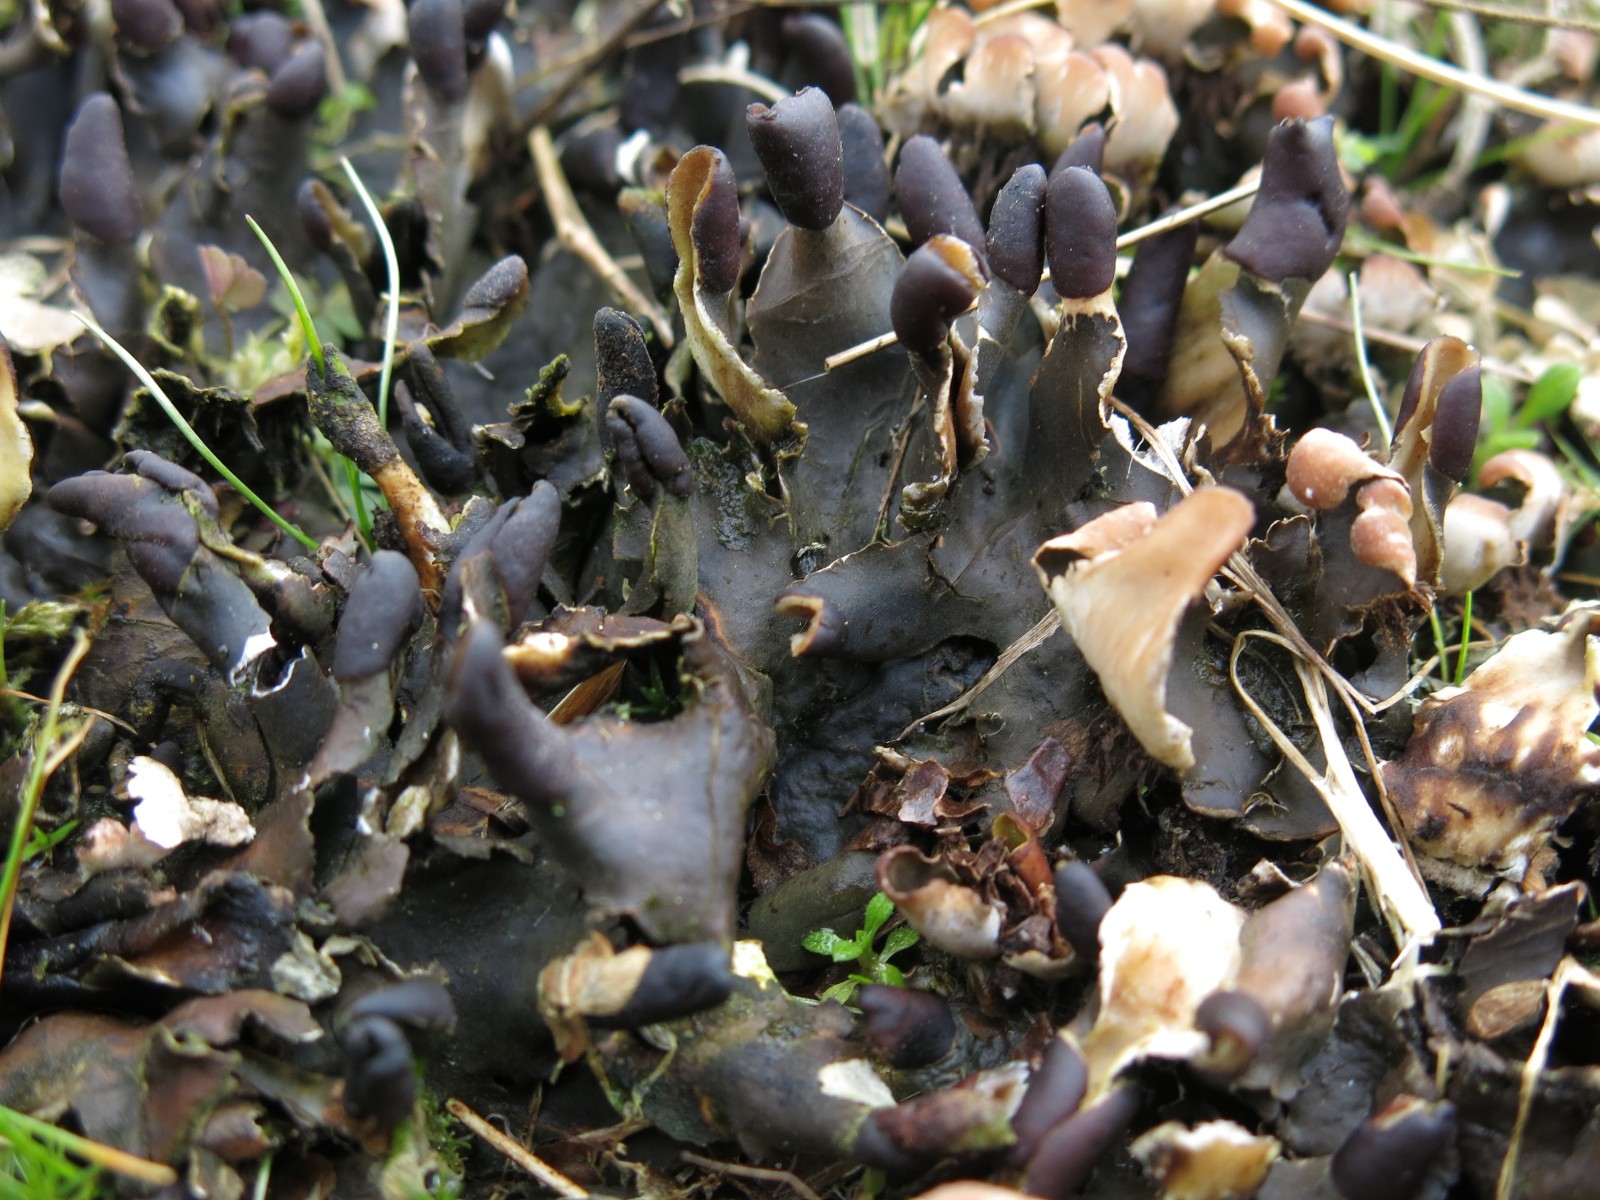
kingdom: Fungi
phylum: Ascomycota
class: Lecanoromycetes
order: Peltigerales
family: Peltigeraceae
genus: Peltigera
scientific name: Peltigera neckeri
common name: glinsende skjoldlav
